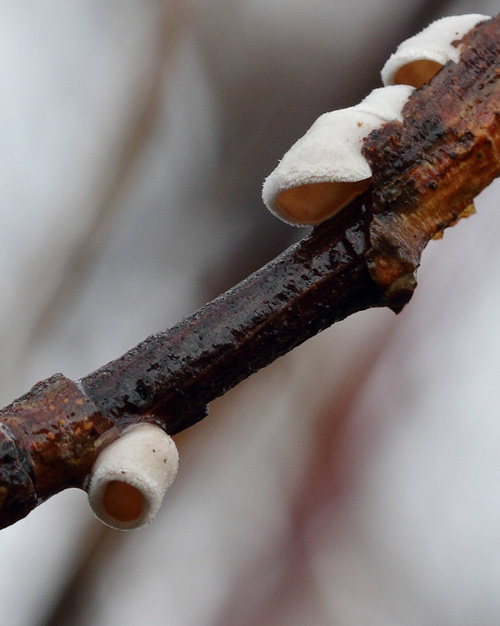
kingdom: Fungi
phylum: Basidiomycota
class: Agaricomycetes
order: Agaricales
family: Schizophyllaceae
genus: Schizophyllum
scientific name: Schizophyllum amplum
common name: poppel-hængeøre
